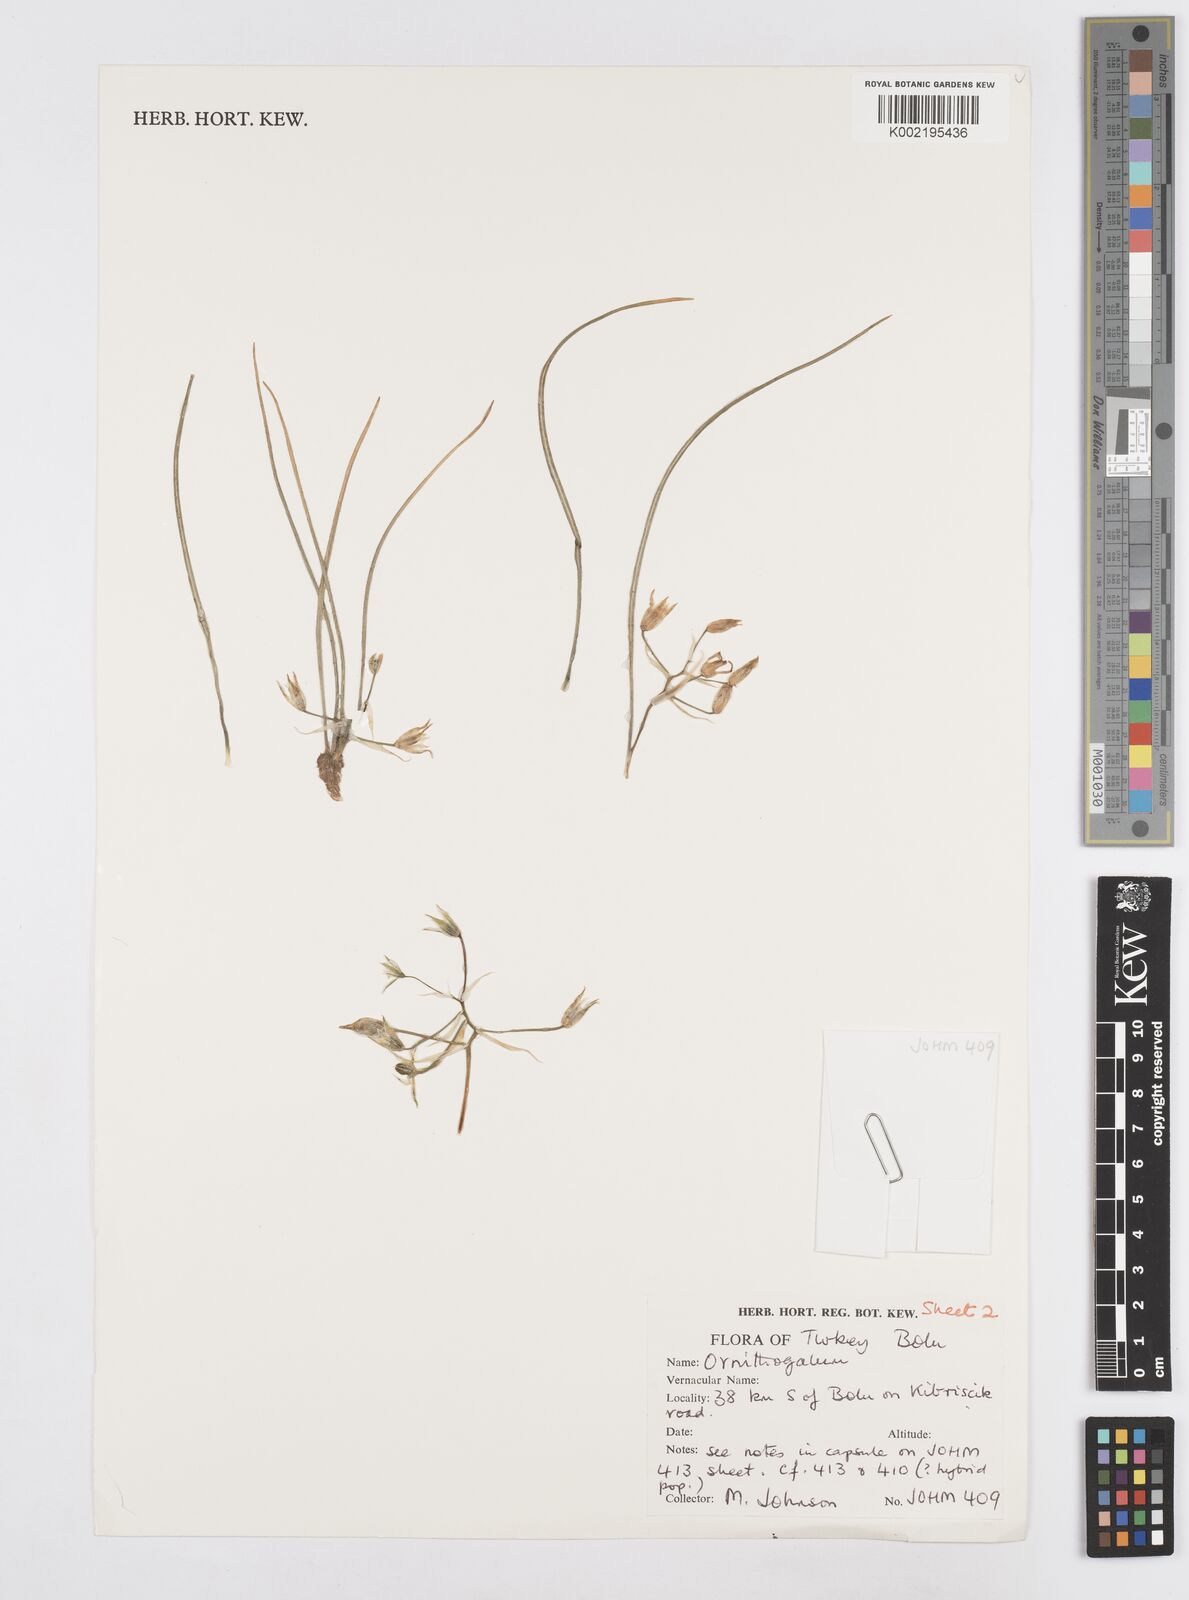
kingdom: Plantae
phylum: Tracheophyta
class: Liliopsida
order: Asparagales
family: Asparagaceae
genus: Ornithogalum
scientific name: Ornithogalum
